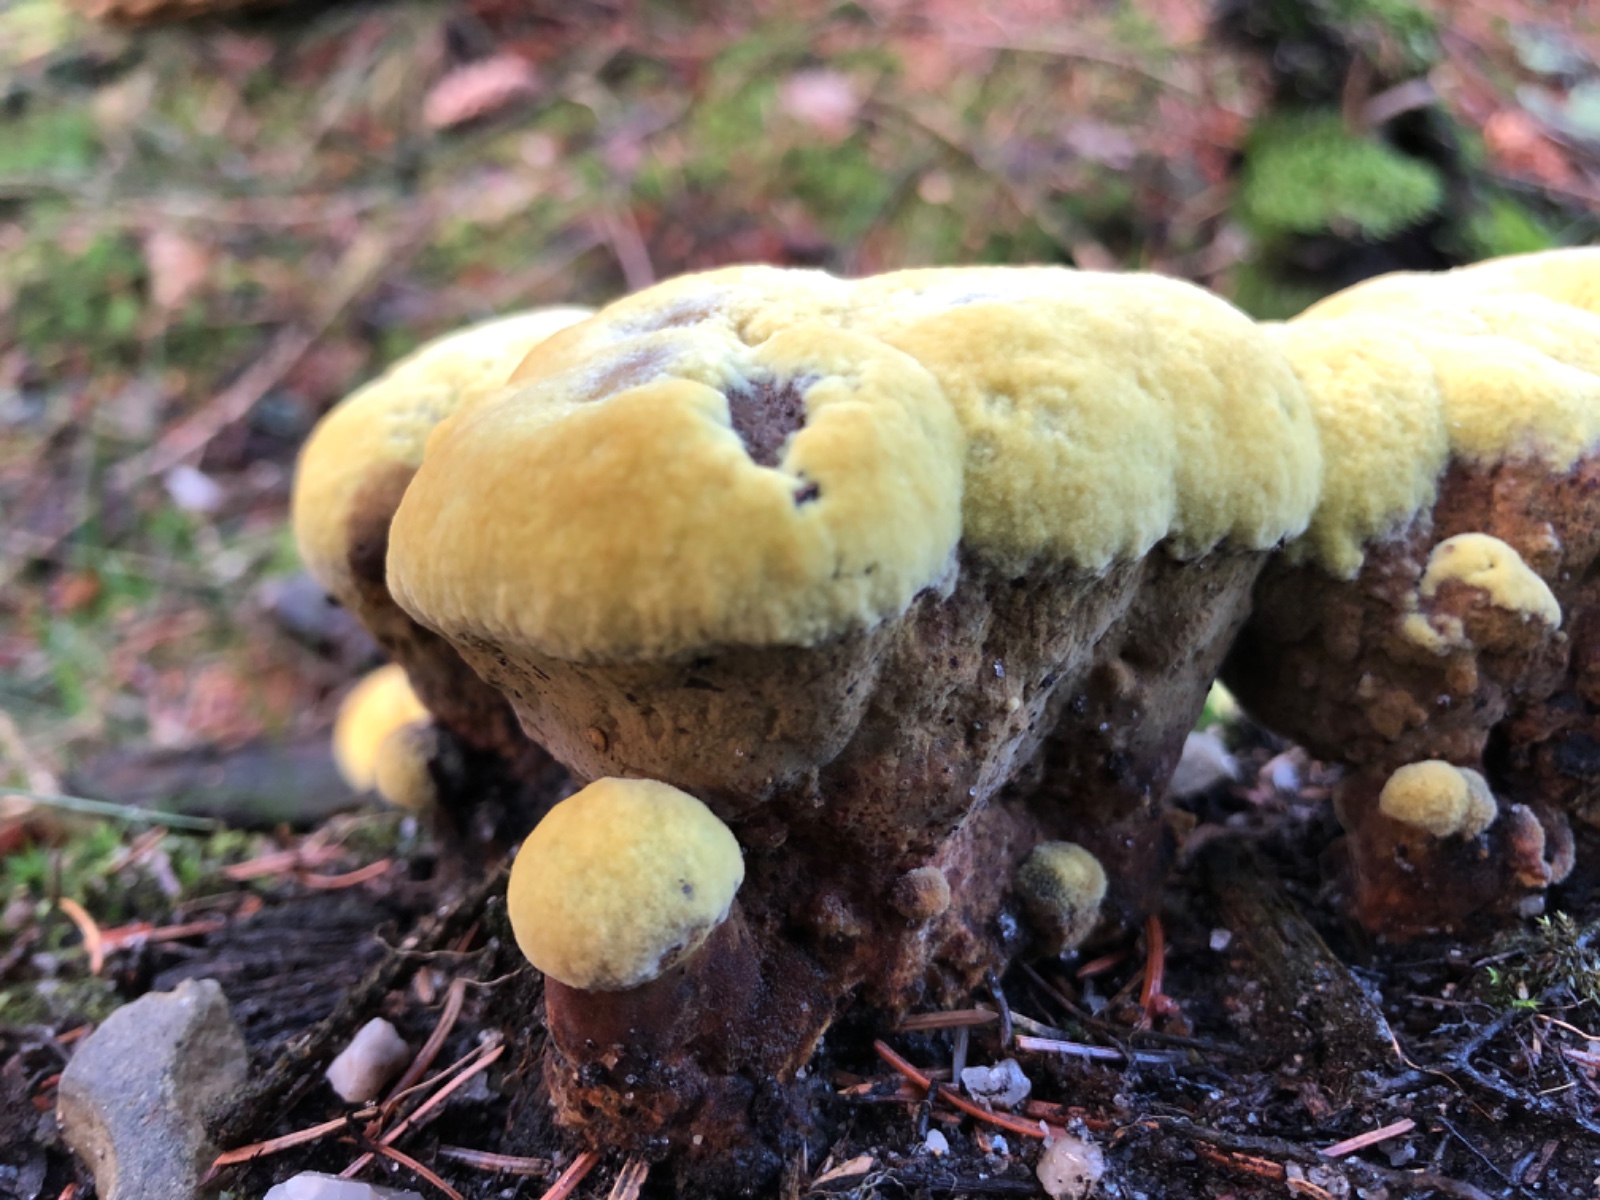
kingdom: Fungi
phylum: Basidiomycota
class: Agaricomycetes
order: Polyporales
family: Laetiporaceae
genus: Phaeolus
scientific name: Phaeolus
